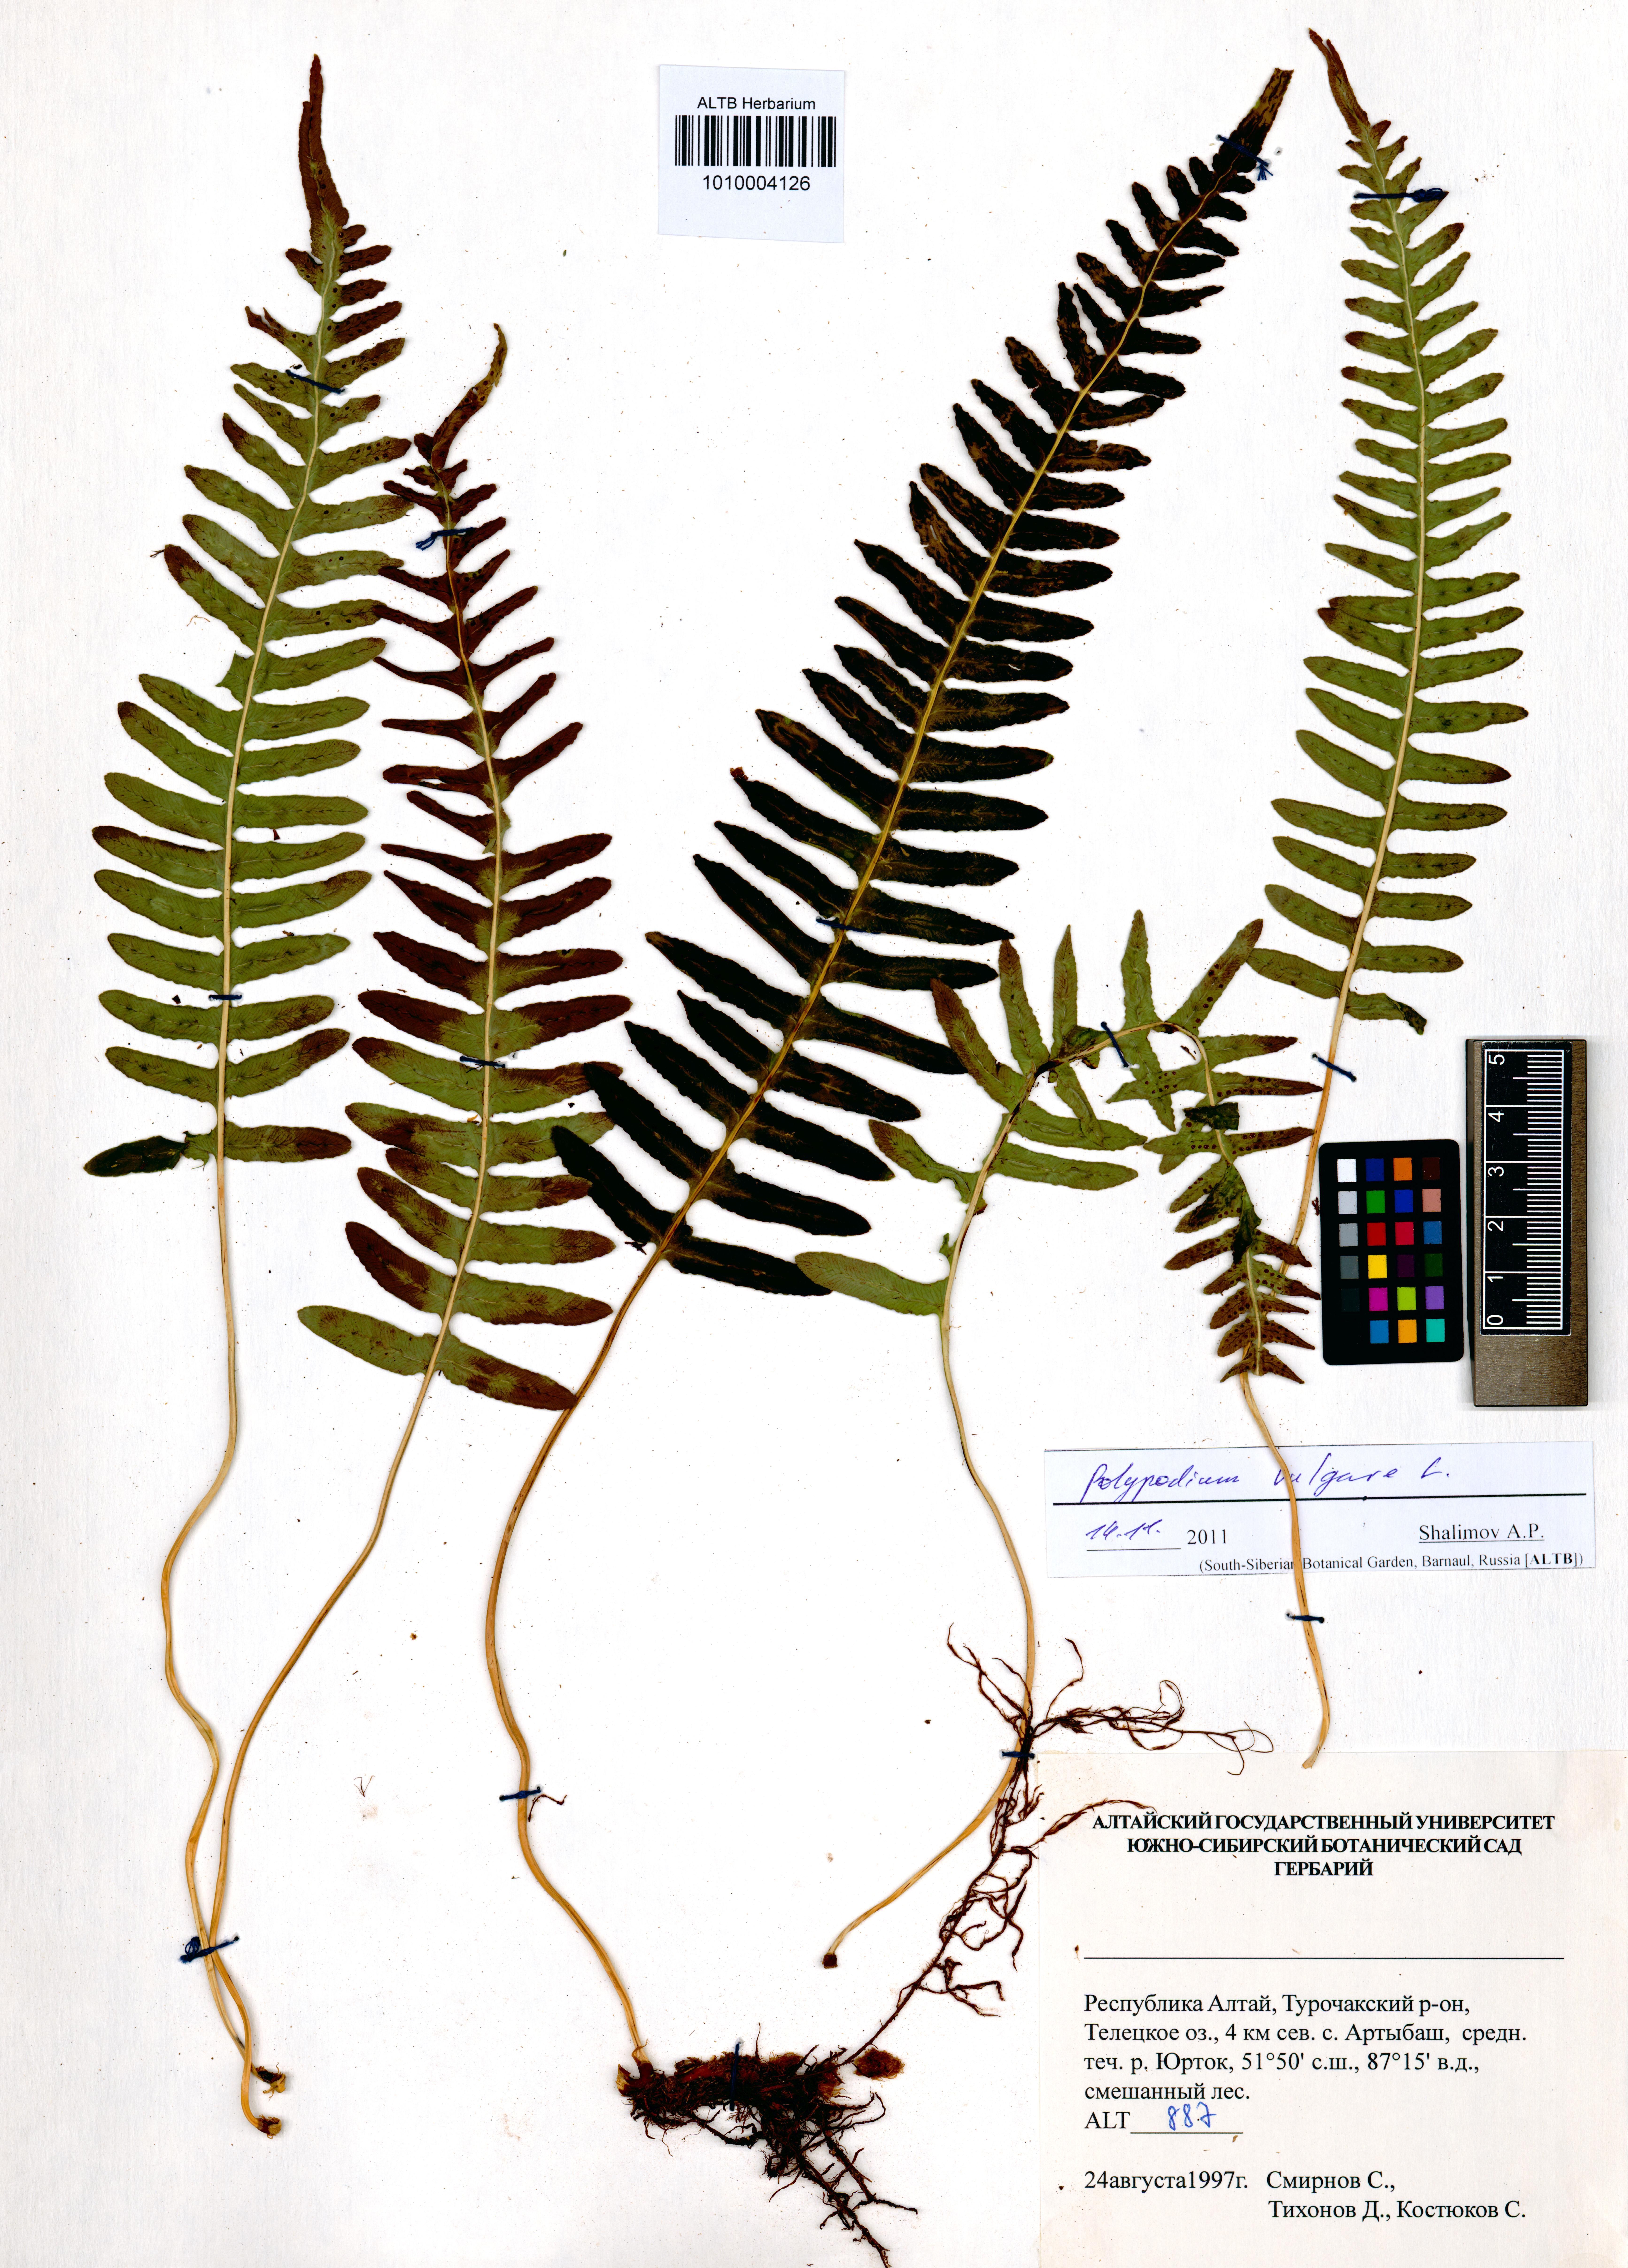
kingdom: Plantae
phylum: Tracheophyta
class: Polypodiopsida
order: Polypodiales
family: Polypodiaceae
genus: Polypodium
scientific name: Polypodium vulgare
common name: Common polypody
